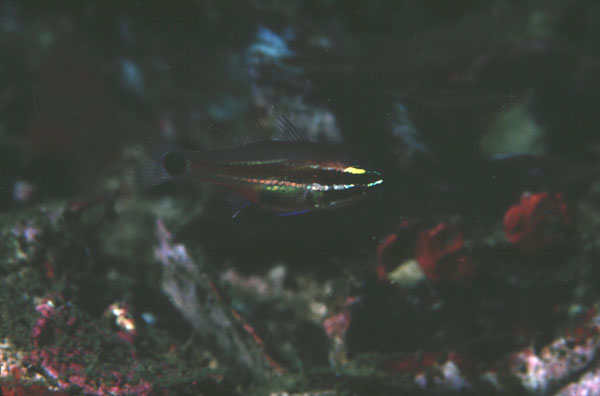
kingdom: Animalia
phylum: Chordata
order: Perciformes
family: Apogonidae
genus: Ostorhinchus
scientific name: Ostorhinchus selas
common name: Meteor cardinalfish
